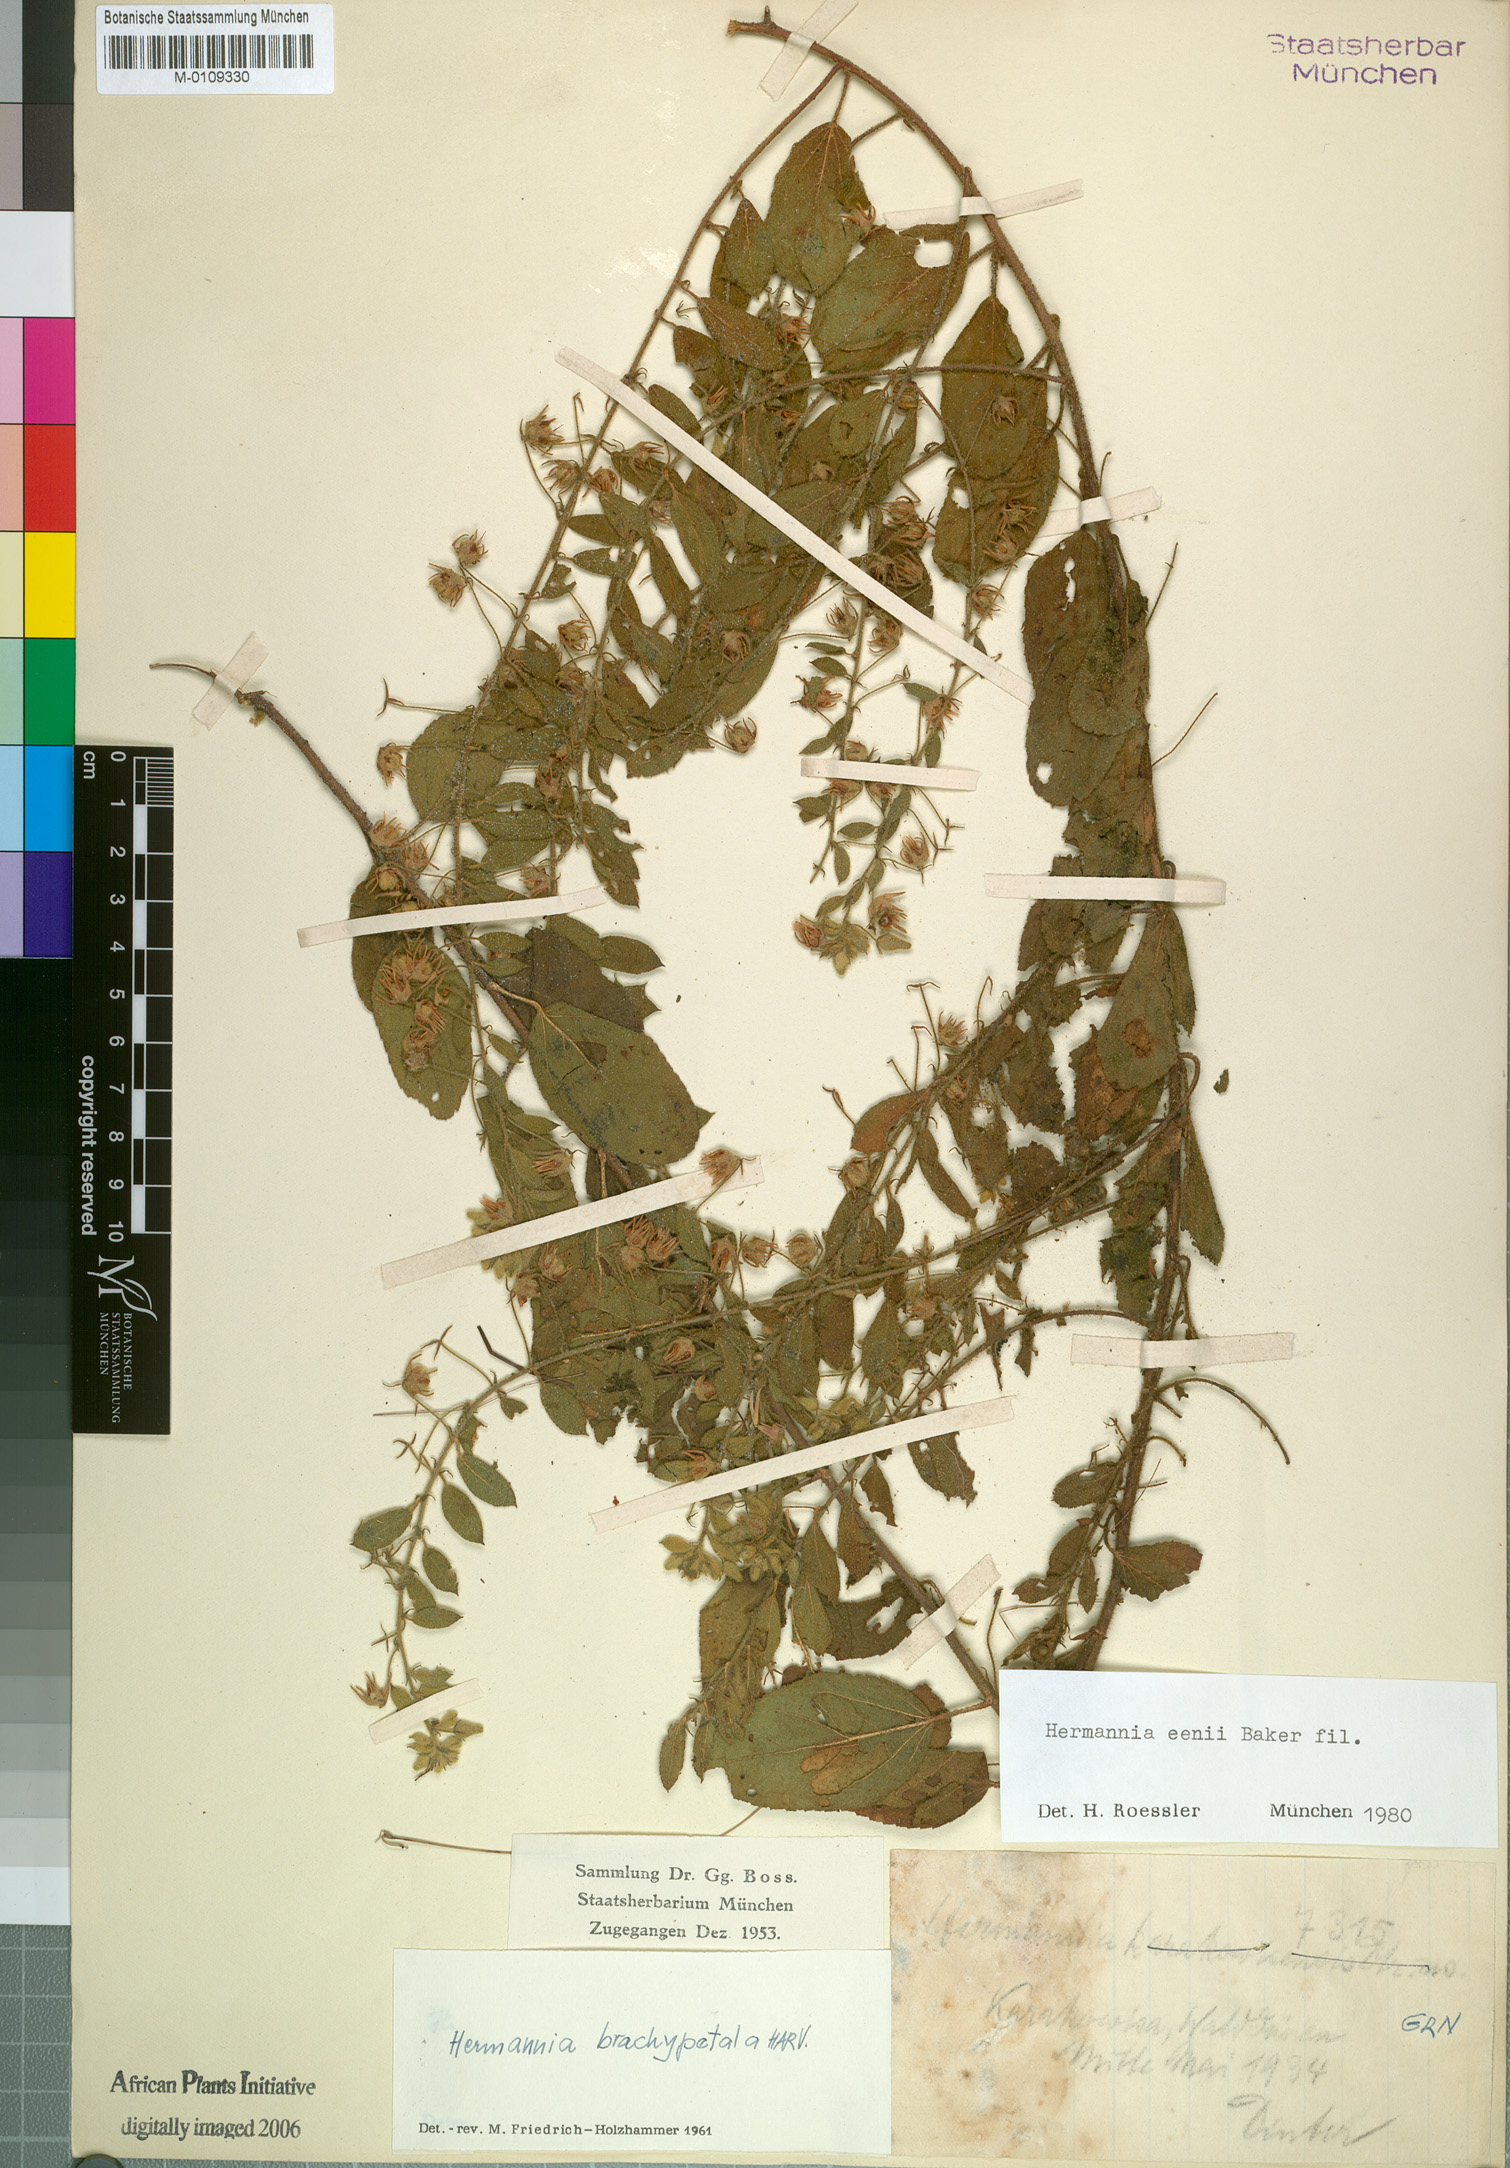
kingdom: Plantae
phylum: Tracheophyta
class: Magnoliopsida
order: Malvales
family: Malvaceae
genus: Hermannia
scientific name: Hermannia eenii
